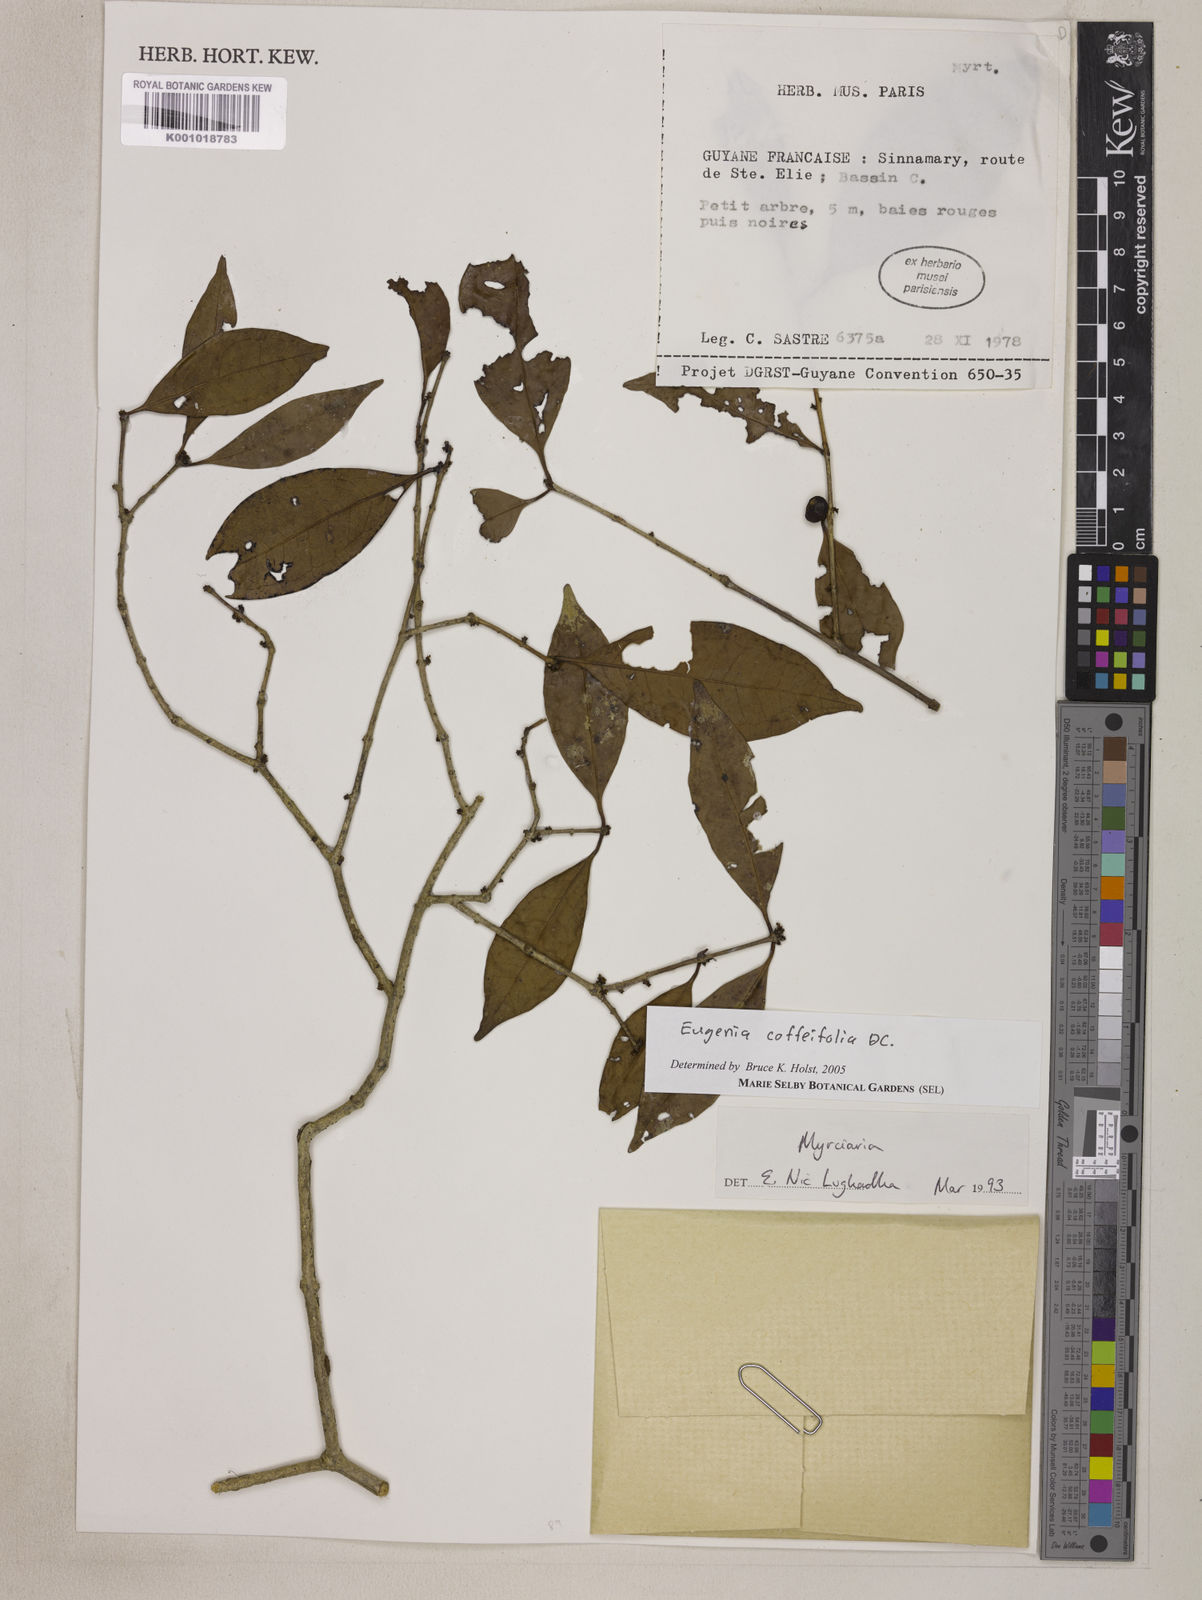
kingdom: Plantae
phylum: Tracheophyta
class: Magnoliopsida
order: Myrtales
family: Myrtaceae
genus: Eugenia
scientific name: Eugenia coffeifolia
